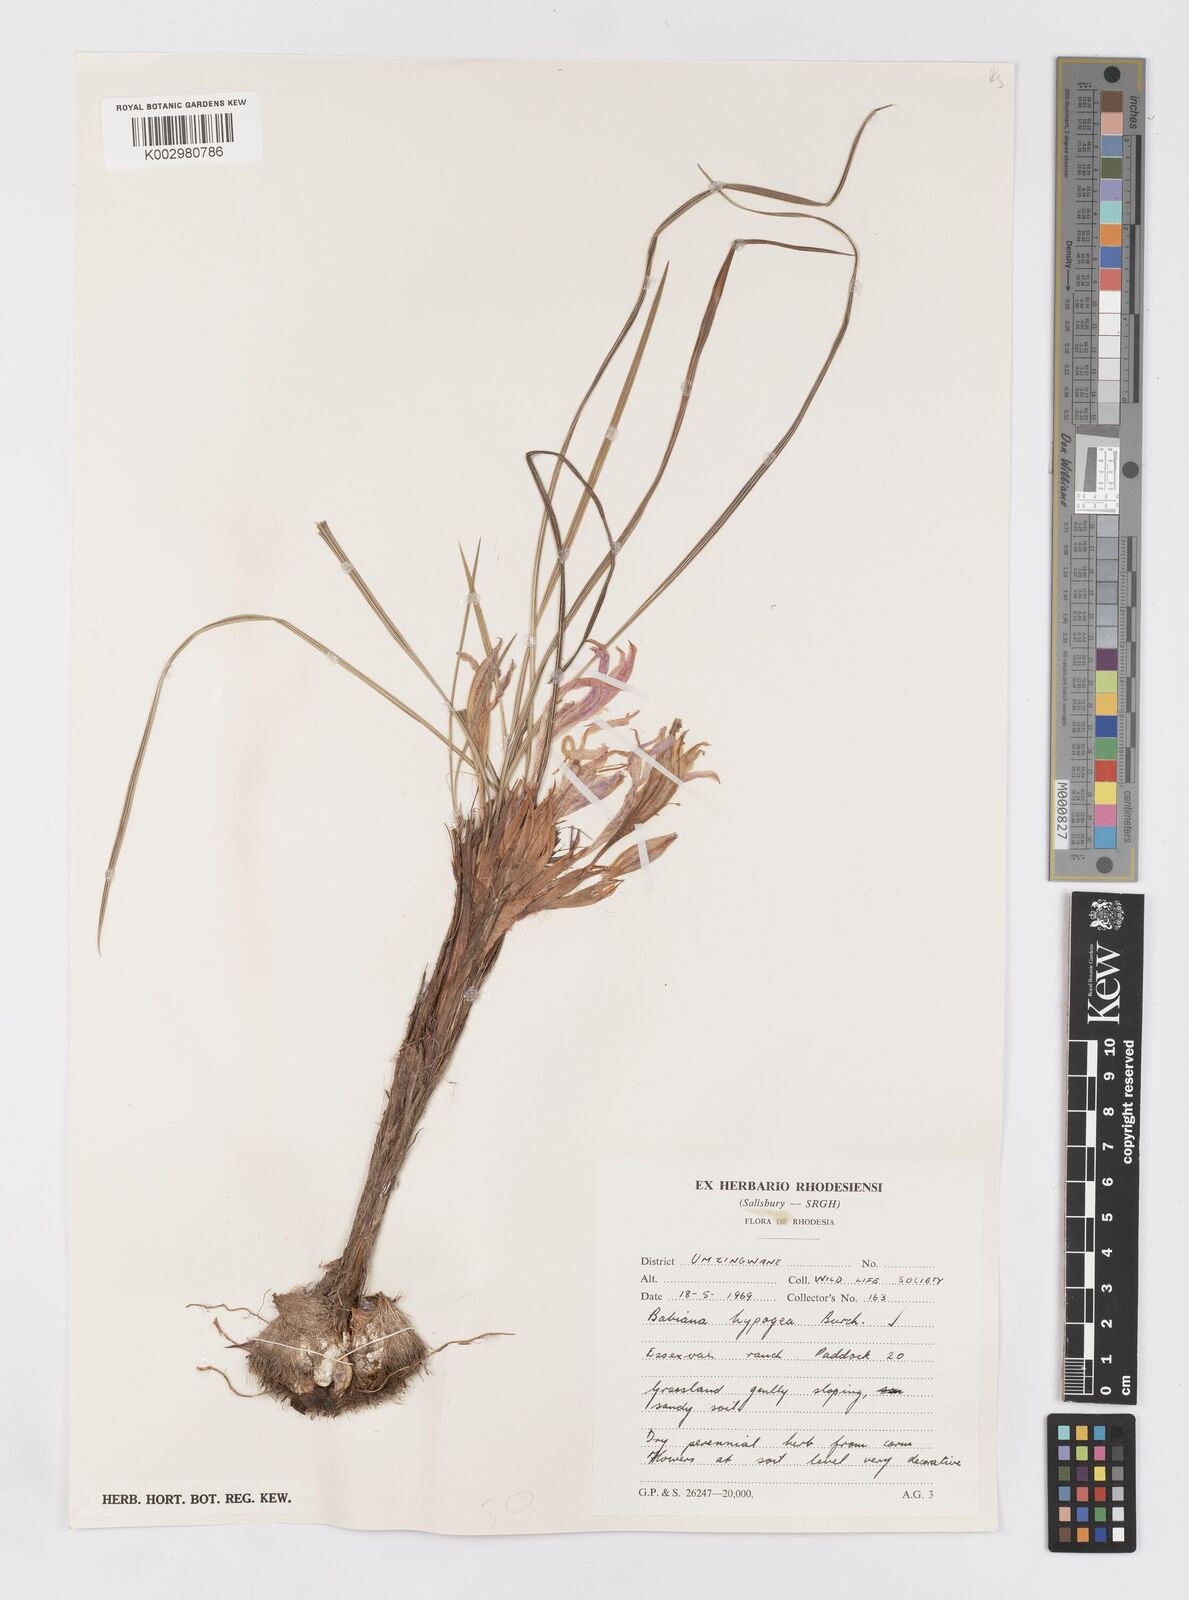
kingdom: Plantae
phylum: Tracheophyta
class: Liliopsida
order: Asparagales
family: Iridaceae
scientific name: Iridaceae
